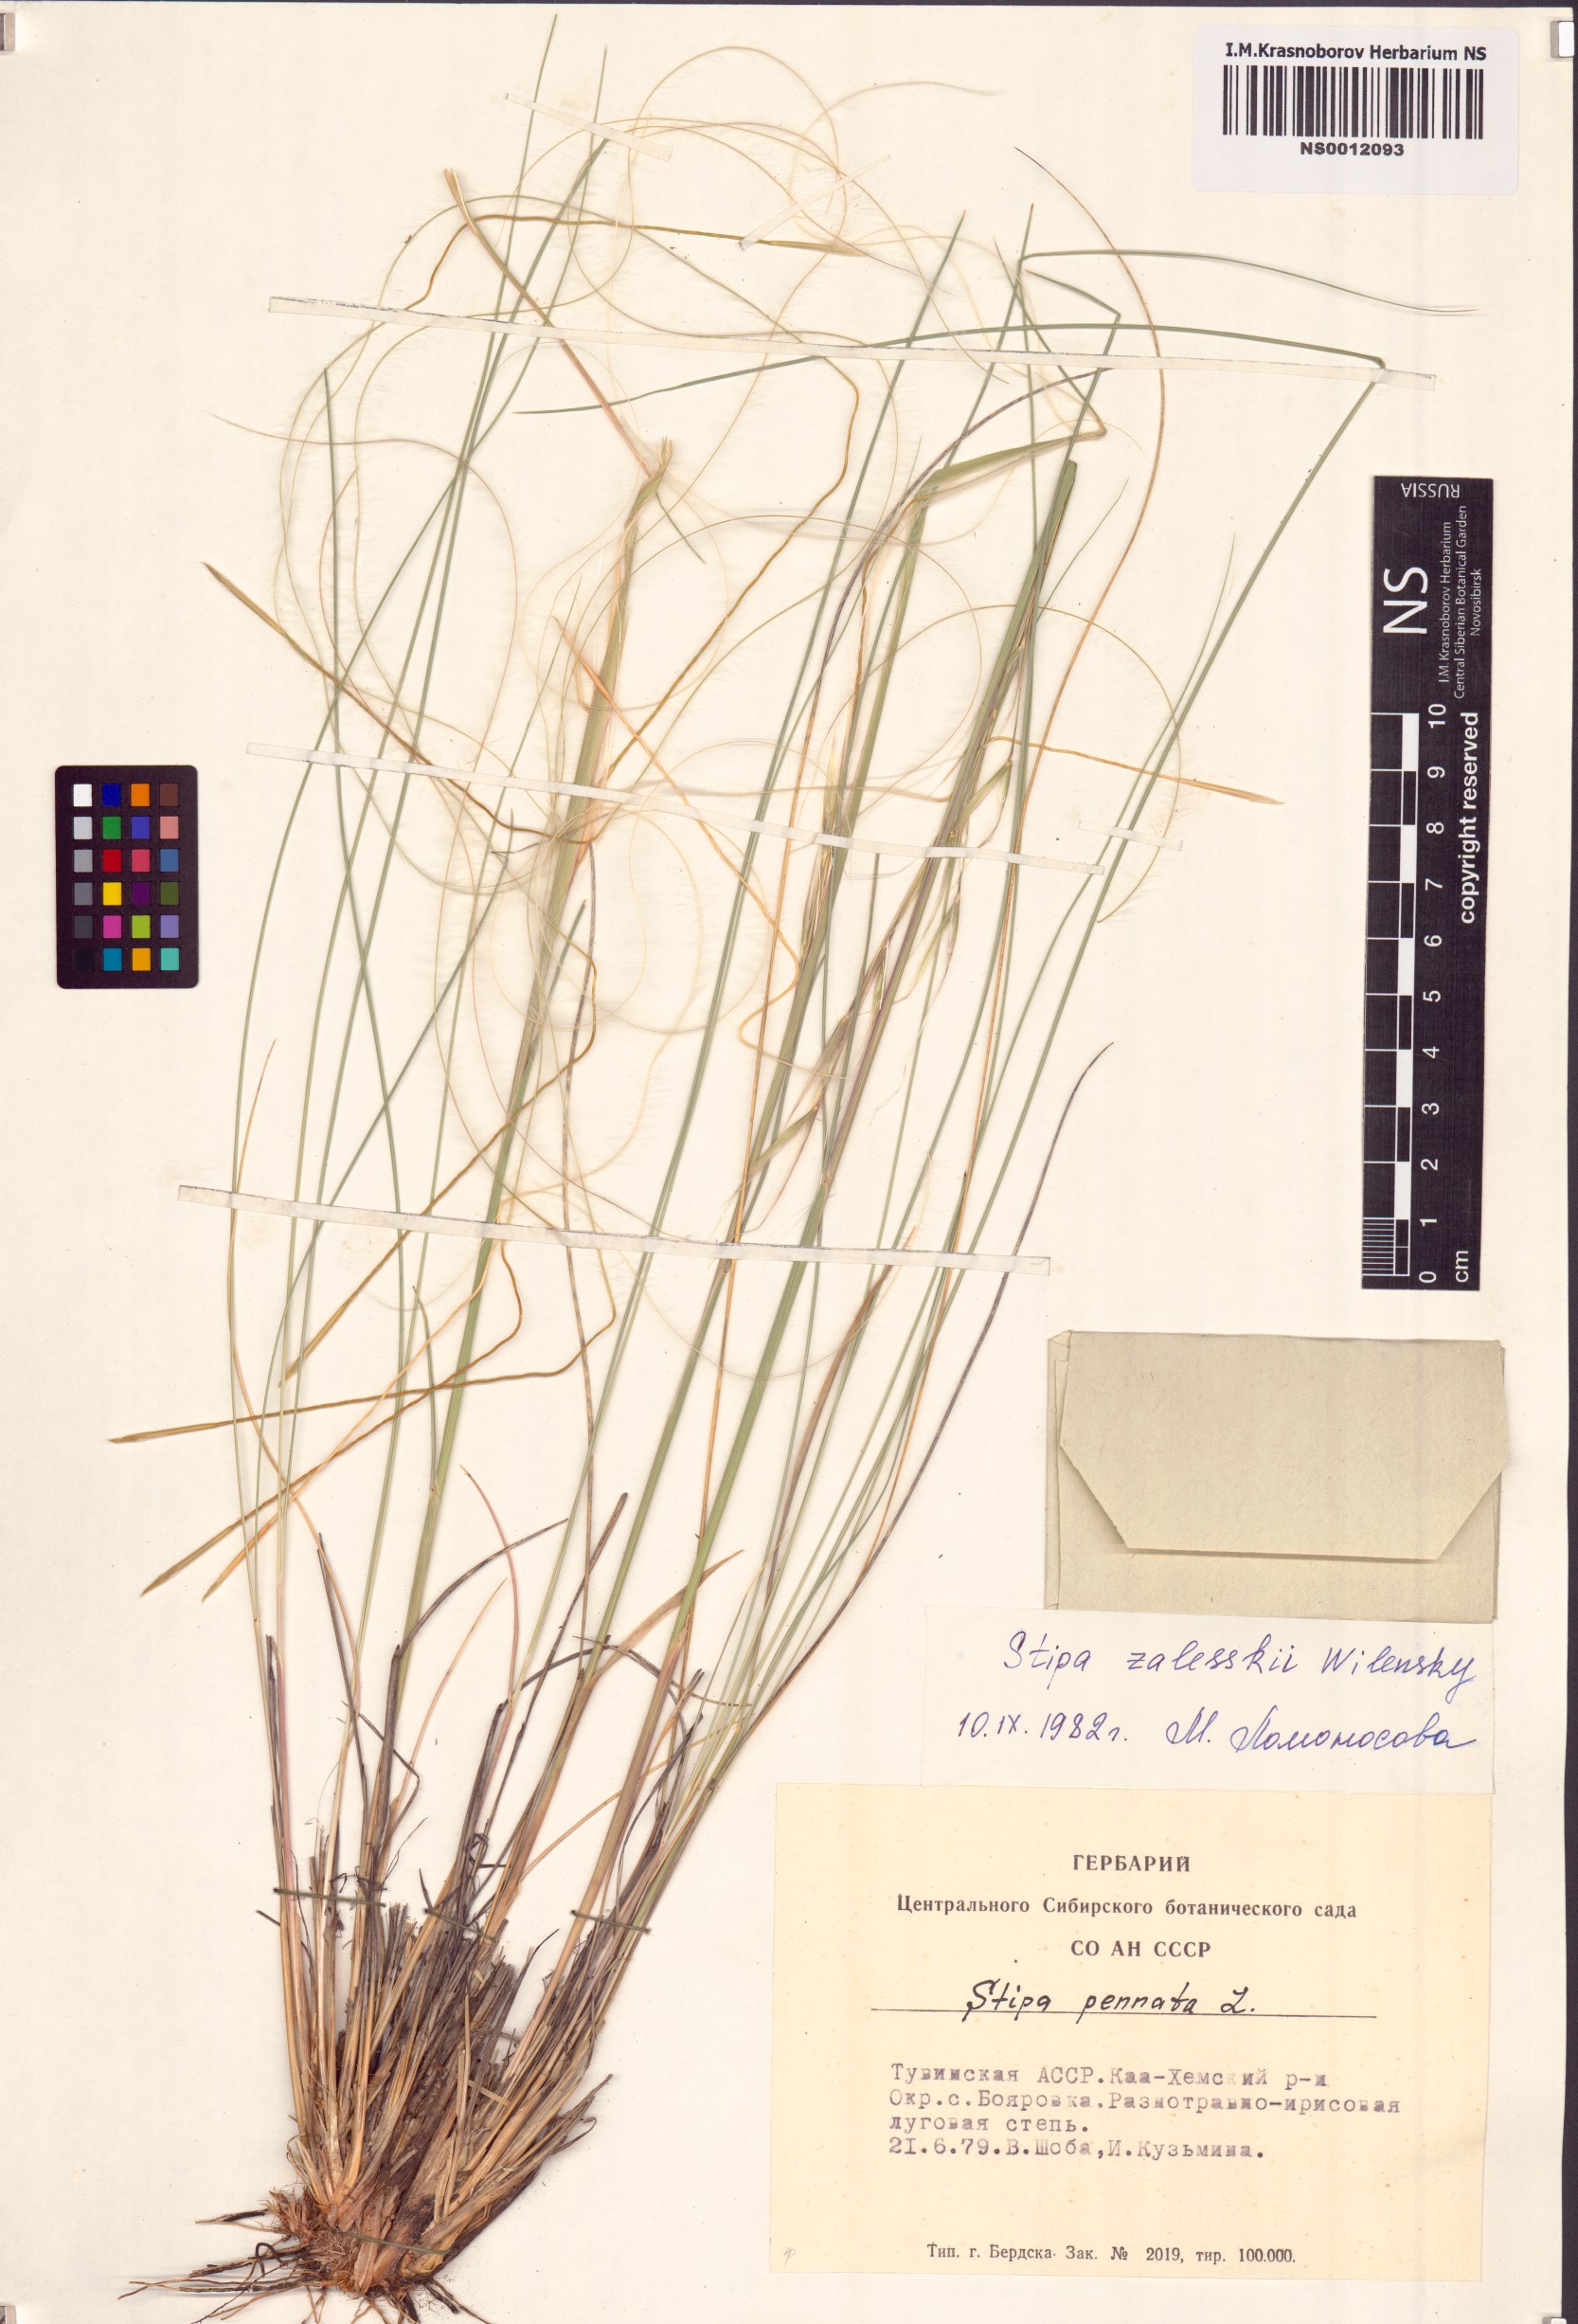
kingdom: Plantae
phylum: Tracheophyta
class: Liliopsida
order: Poales
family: Poaceae
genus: Stipa
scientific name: Stipa zalesskii
